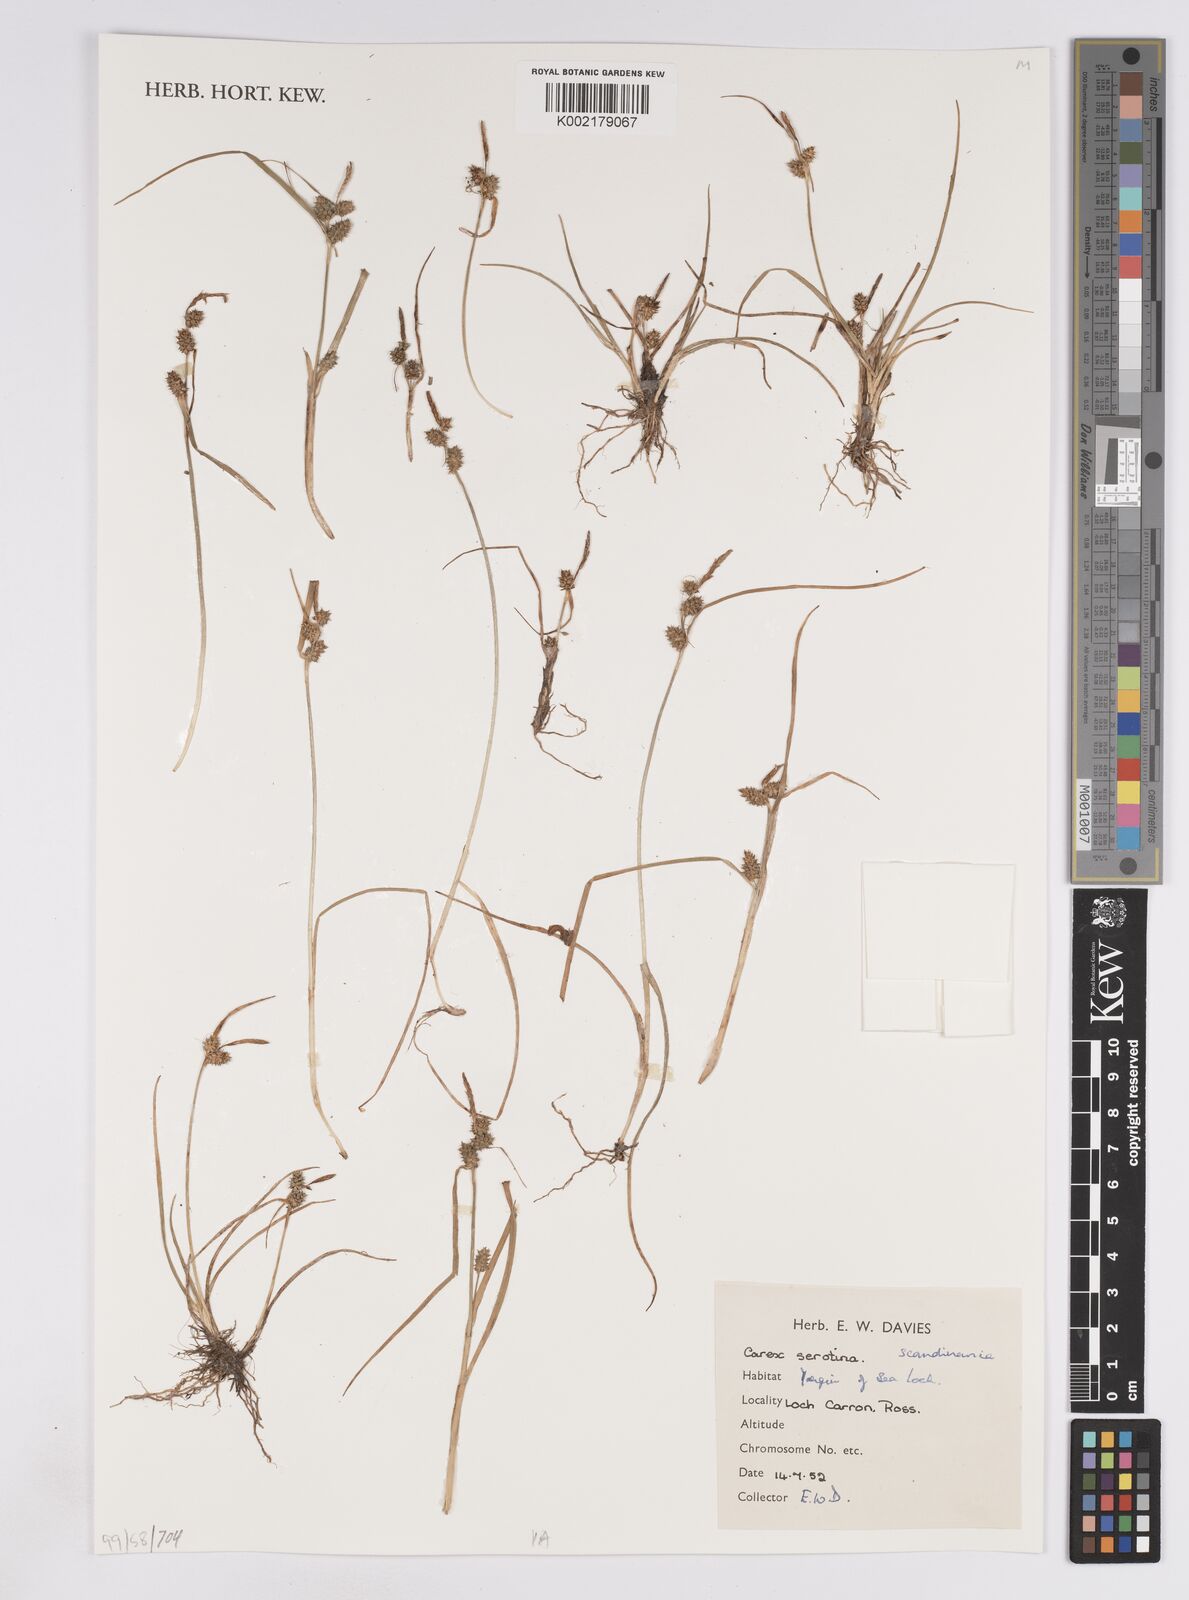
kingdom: Plantae
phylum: Tracheophyta
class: Liliopsida
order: Poales
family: Cyperaceae
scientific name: Cyperaceae
